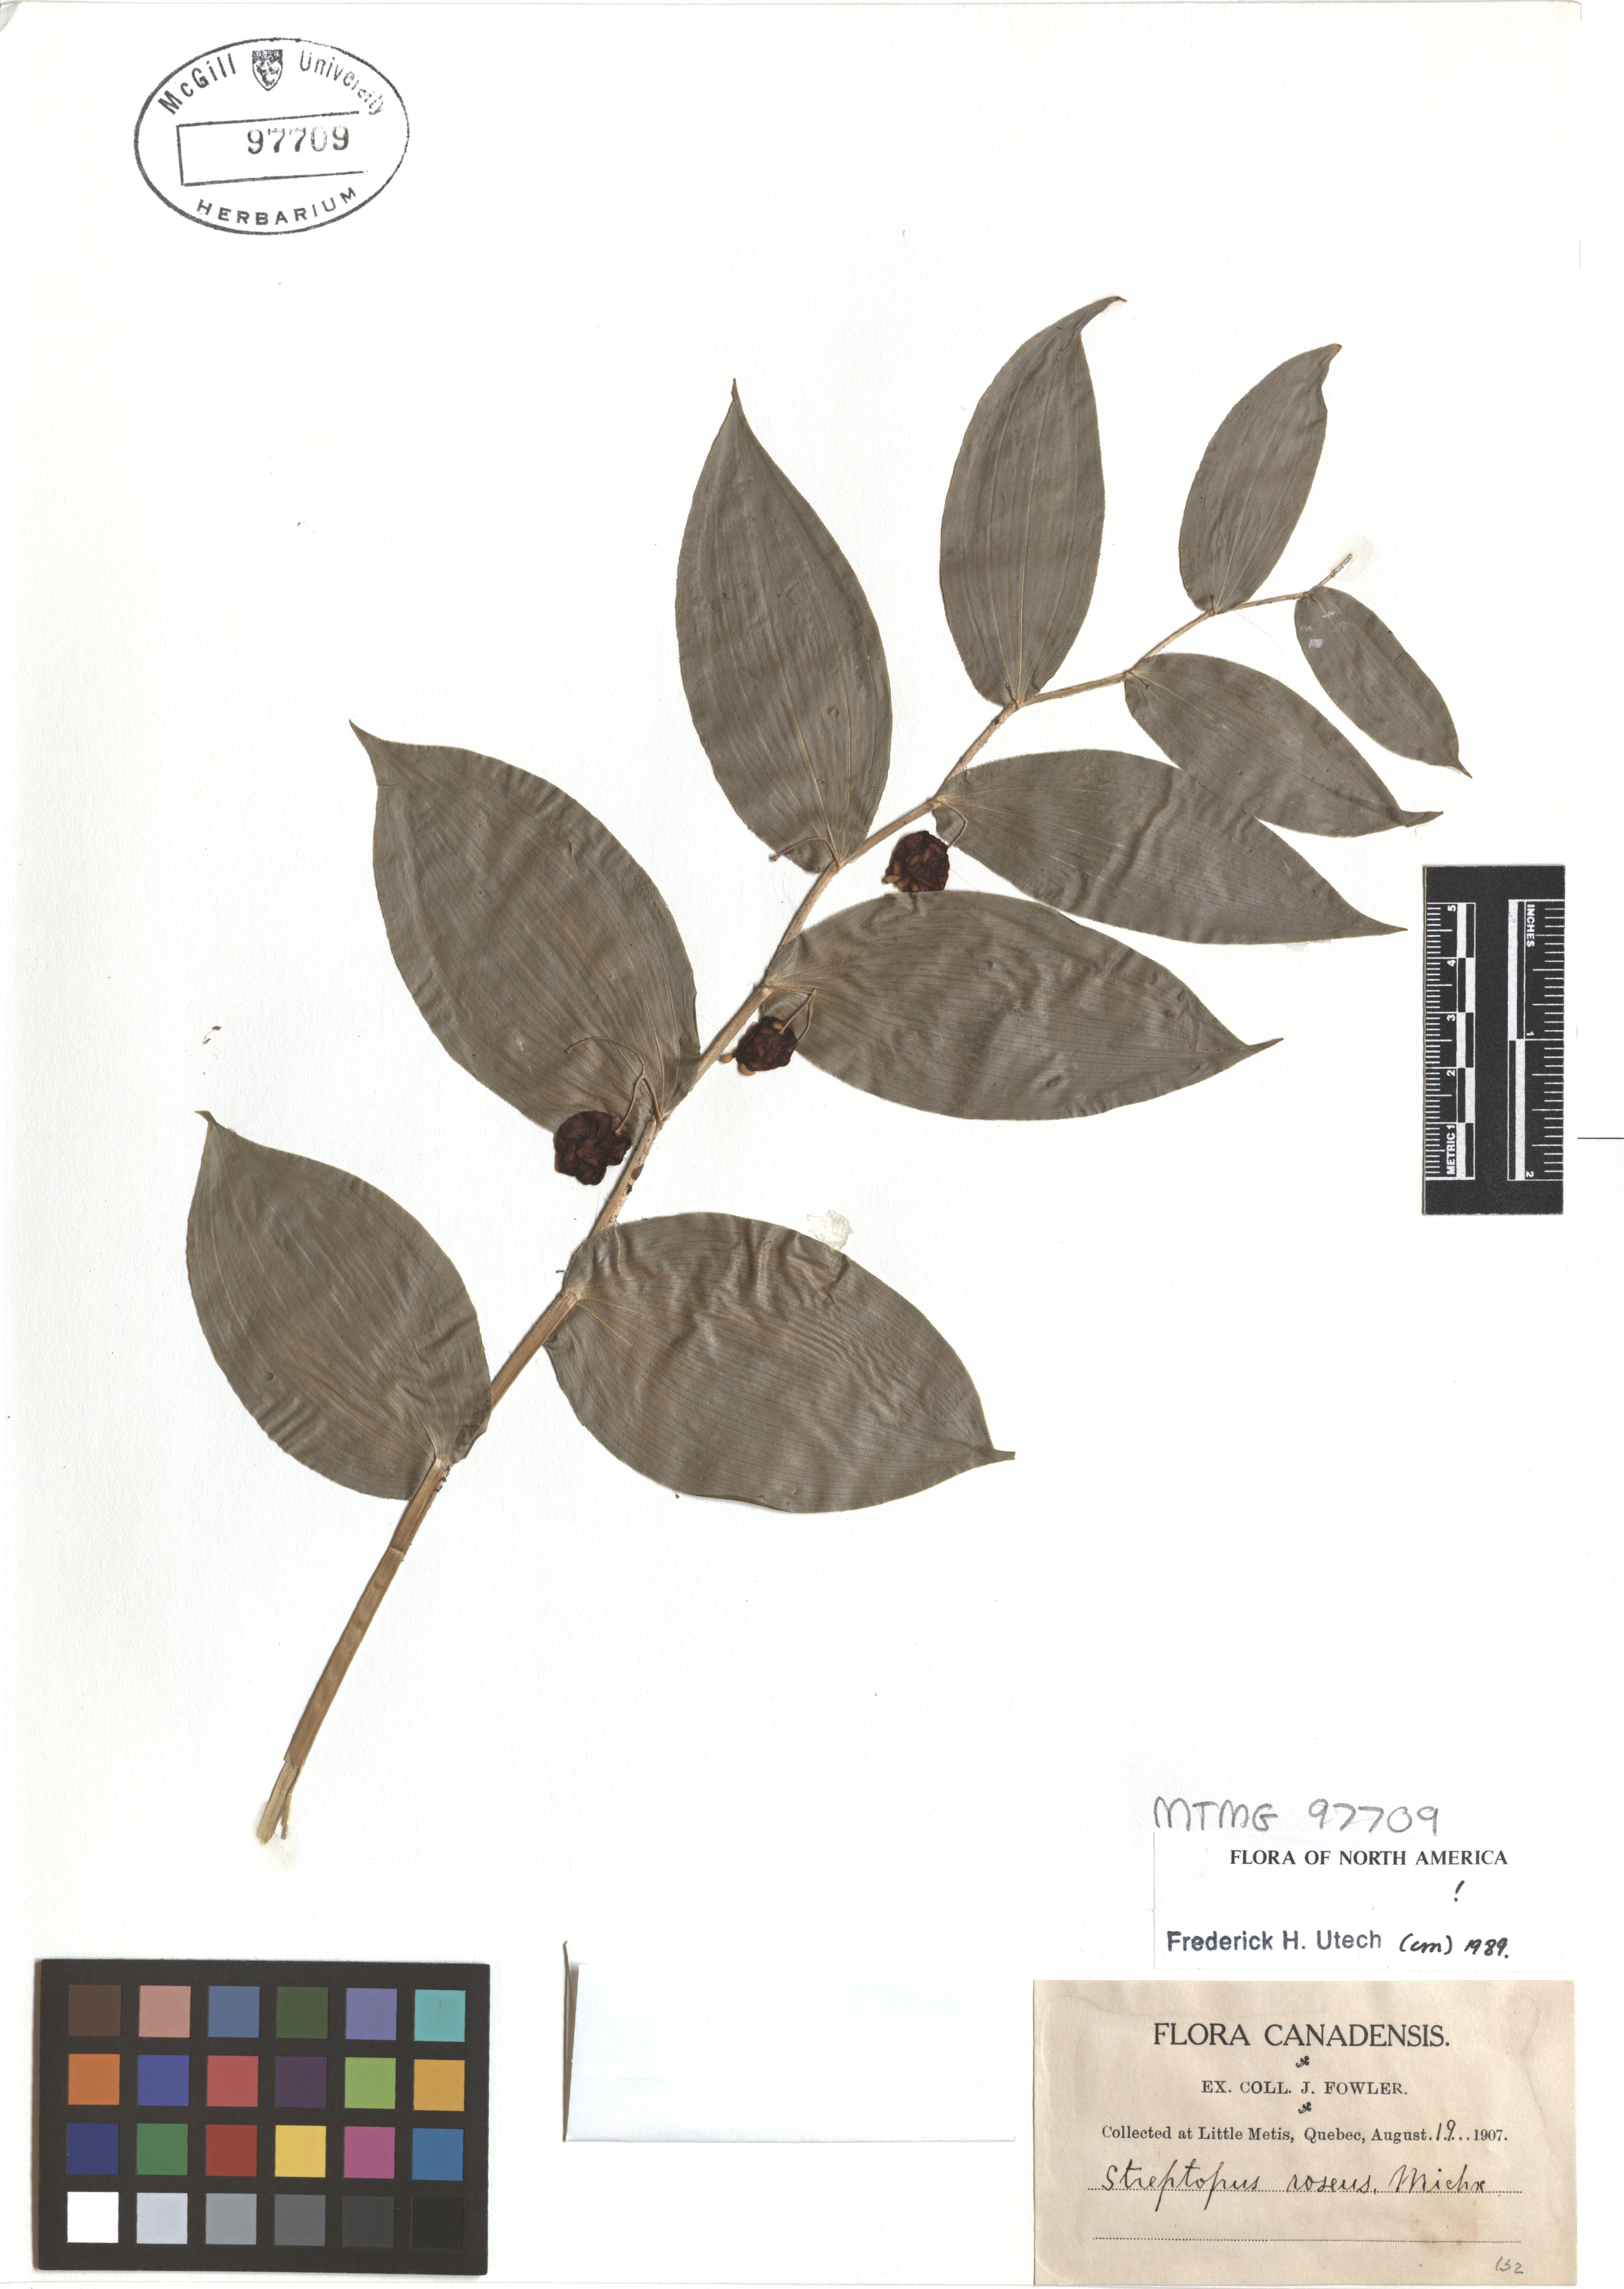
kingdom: Plantae
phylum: Tracheophyta
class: Liliopsida
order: Liliales
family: Liliaceae
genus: Streptopus
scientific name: Streptopus lanceolatus
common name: Rose mandarin
